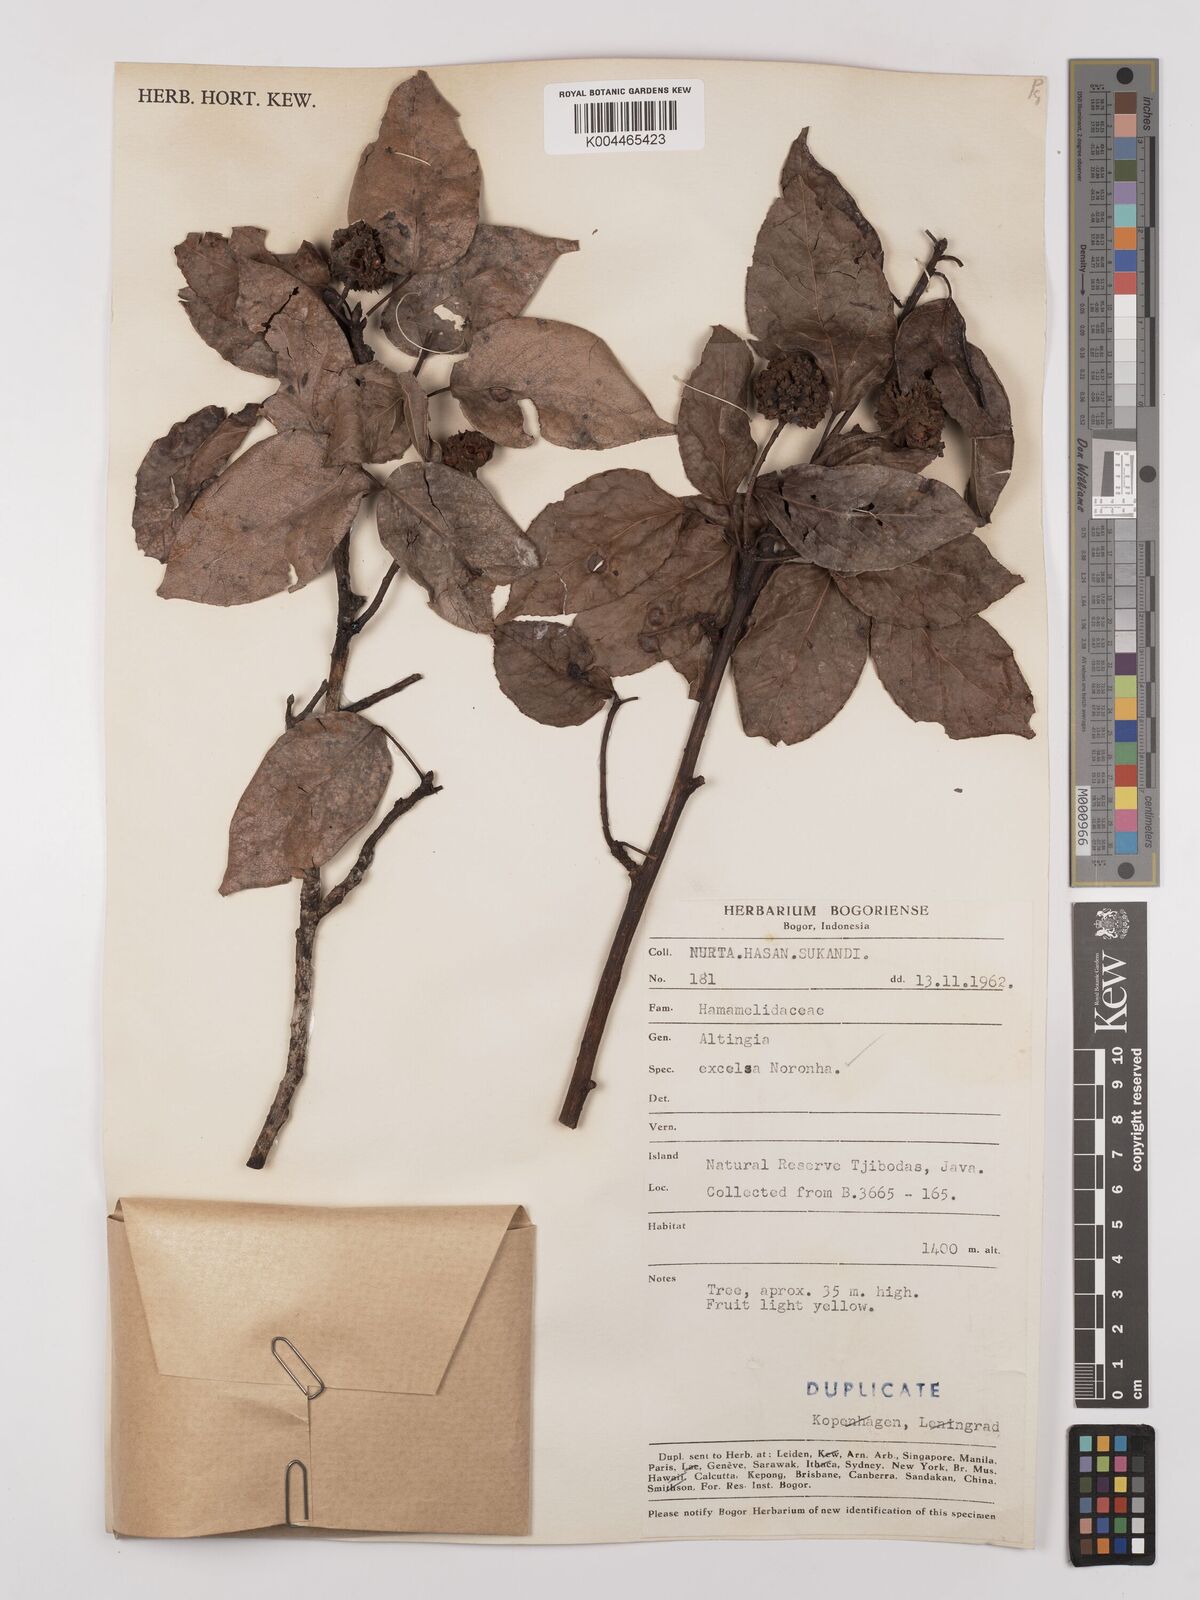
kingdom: Plantae
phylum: Tracheophyta
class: Magnoliopsida
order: Saxifragales
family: Altingiaceae
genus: Liquidambar
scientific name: Liquidambar excelsa
